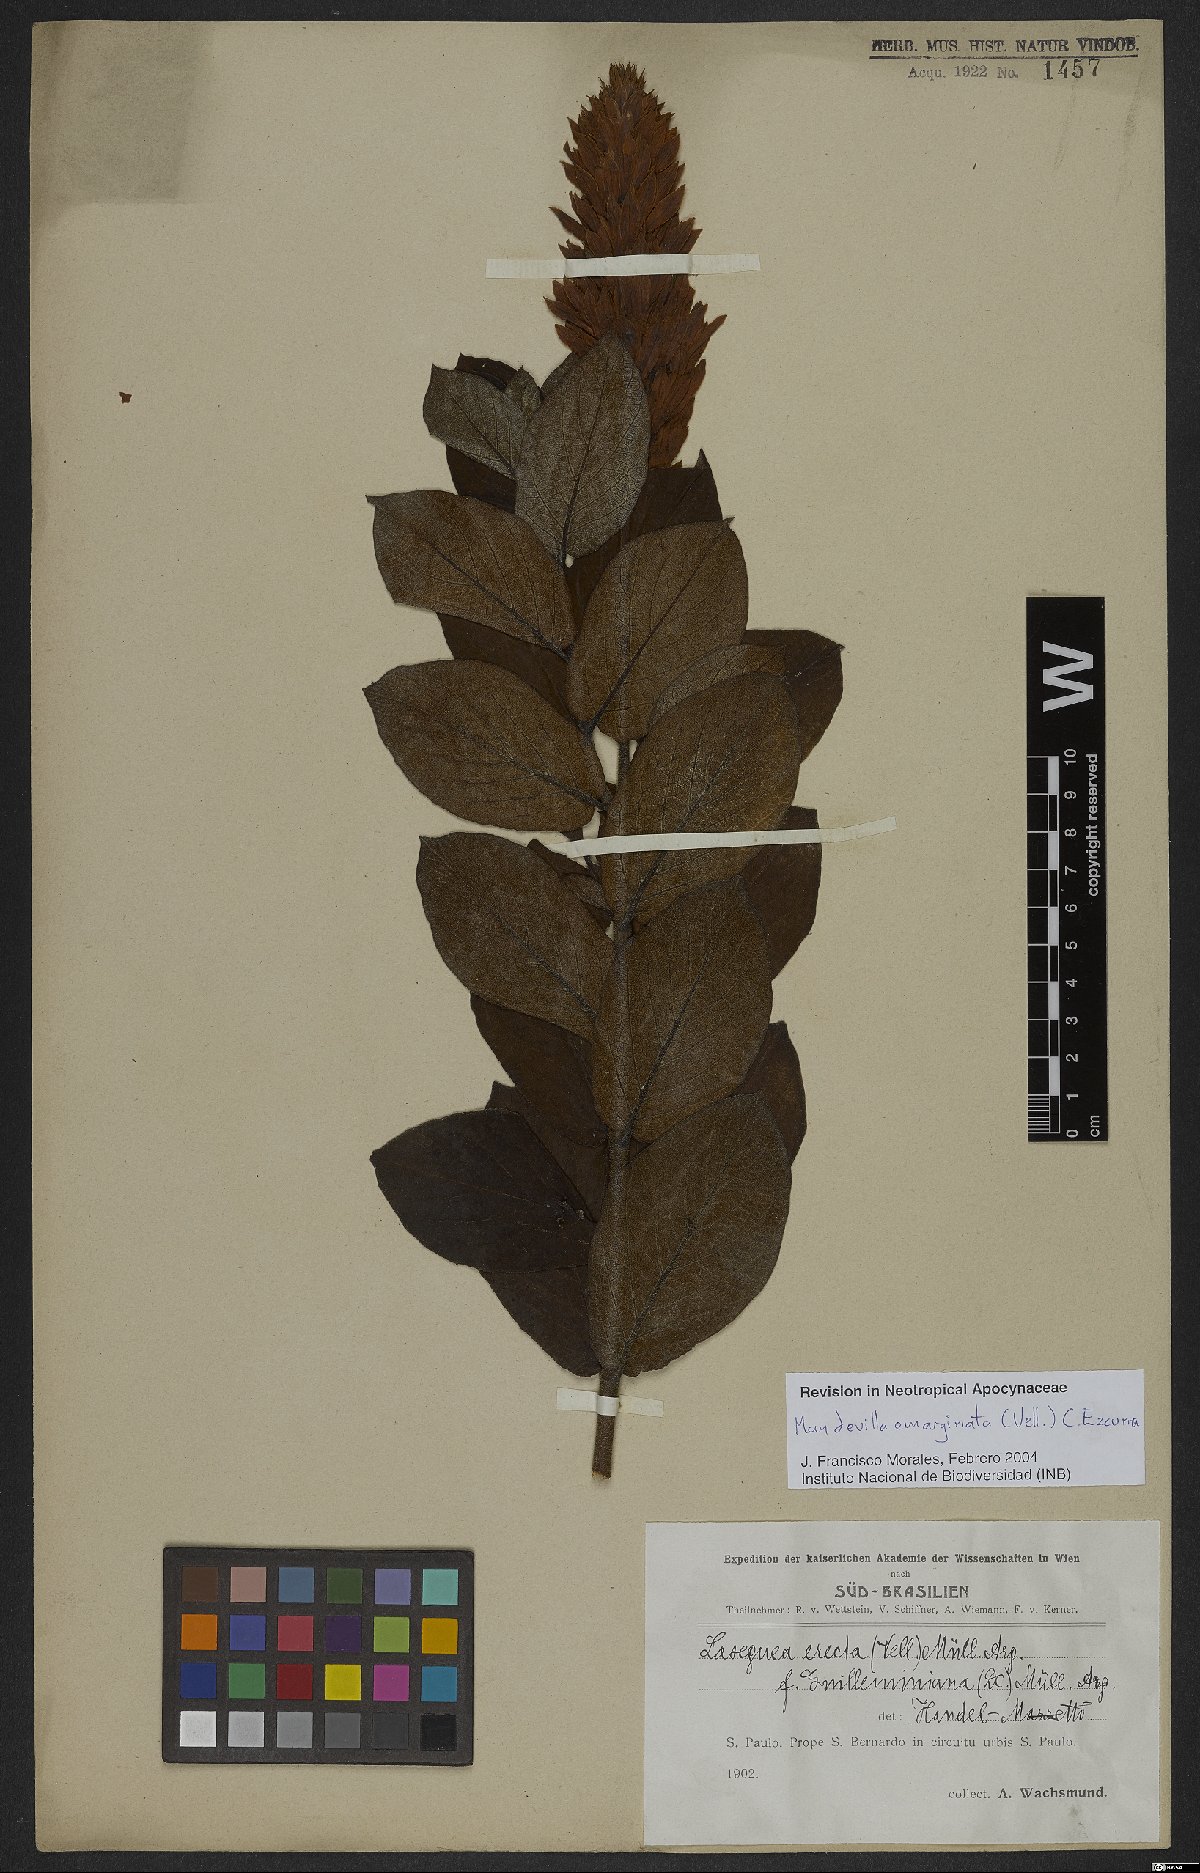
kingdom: Plantae
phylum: Tracheophyta
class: Magnoliopsida
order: Gentianales
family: Apocynaceae
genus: Mandevilla
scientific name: Mandevilla emarginata
